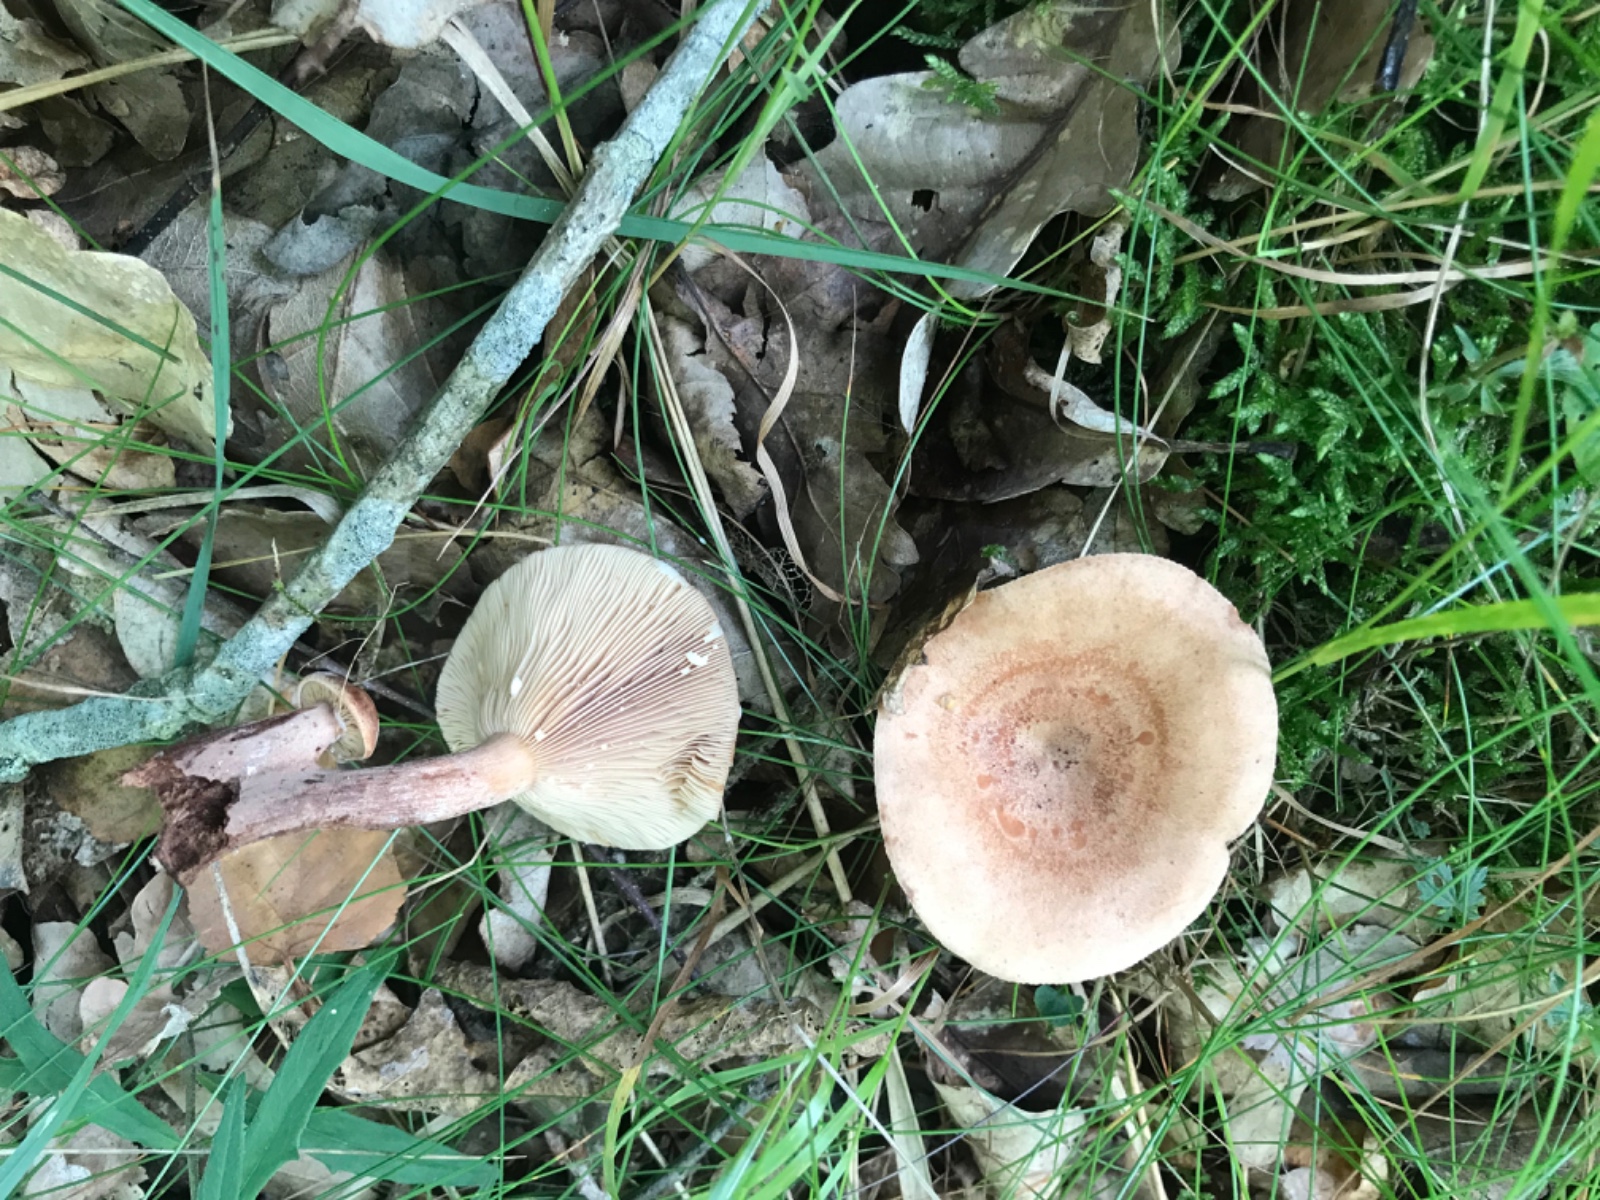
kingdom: Fungi
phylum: Basidiomycota
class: Agaricomycetes
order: Russulales
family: Russulaceae
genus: Lactarius
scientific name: Lactarius quietus
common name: ege-mælkehat
